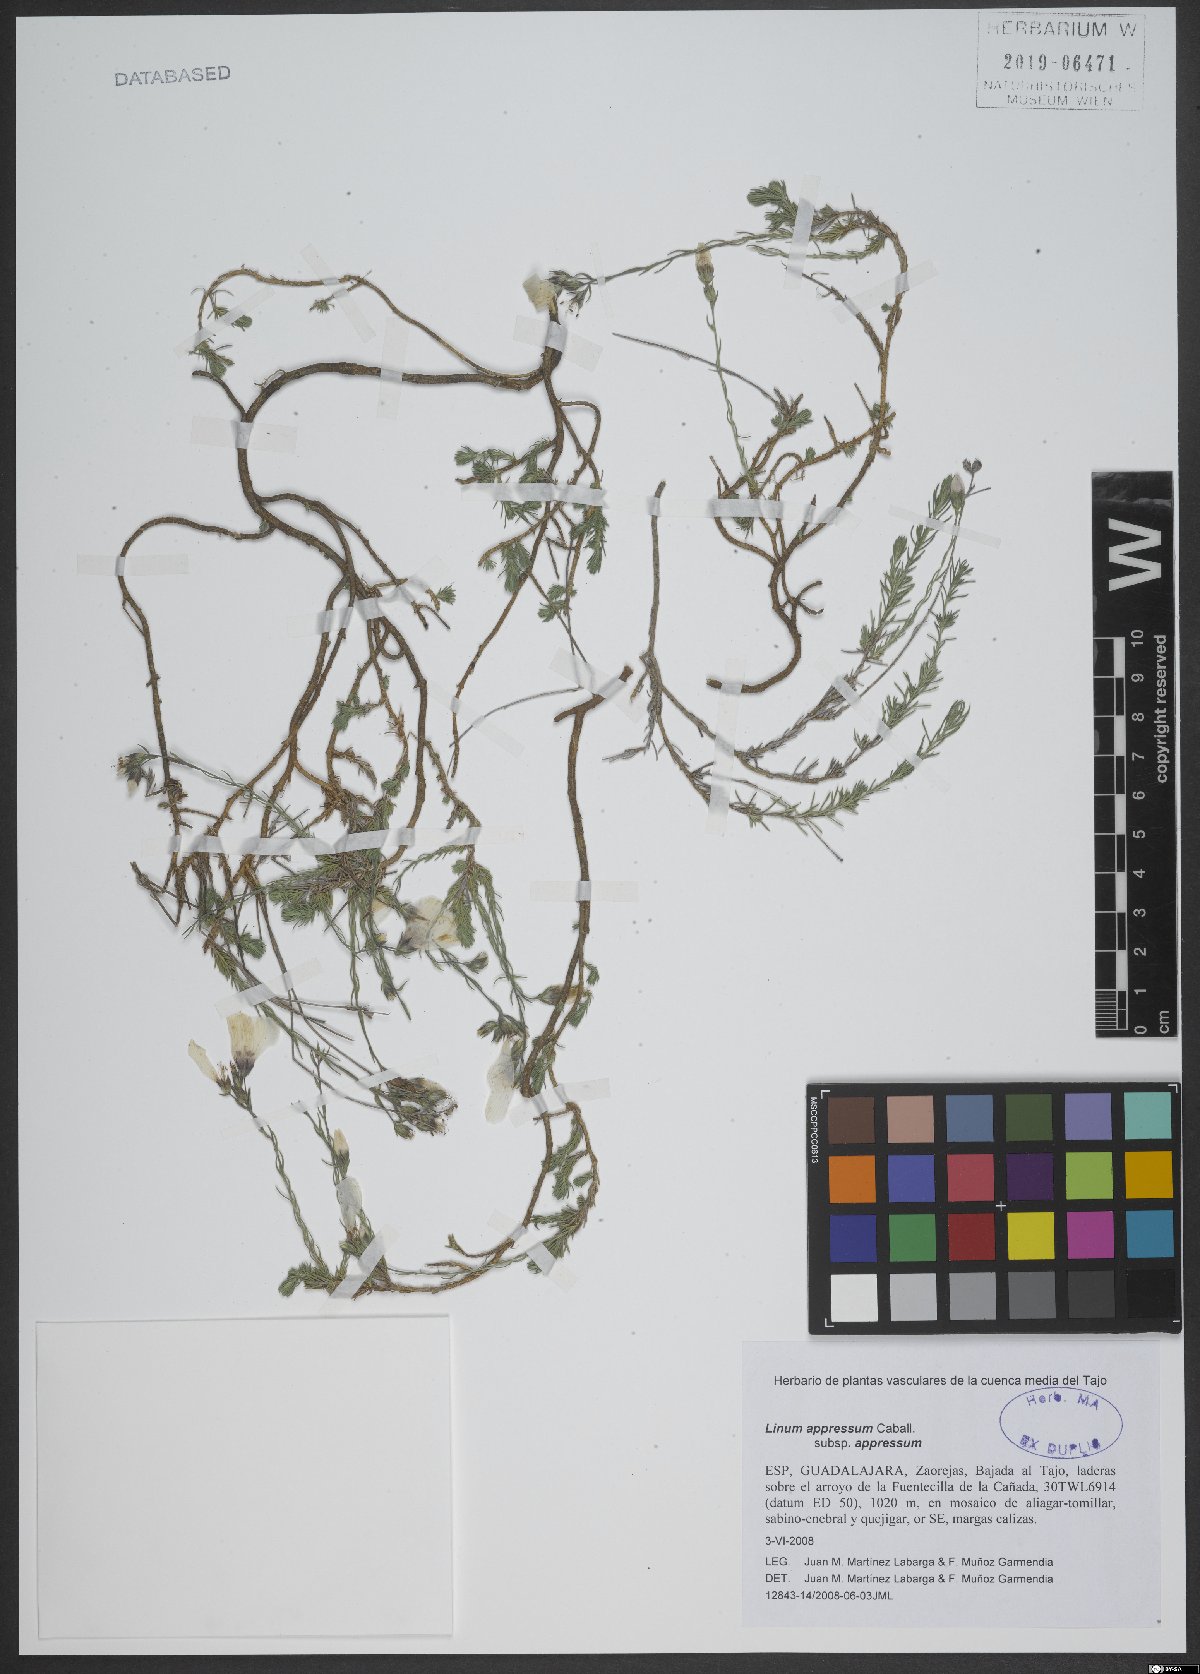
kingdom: Plantae
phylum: Tracheophyta
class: Magnoliopsida
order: Malpighiales
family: Linaceae
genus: Linum
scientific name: Linum appressum
